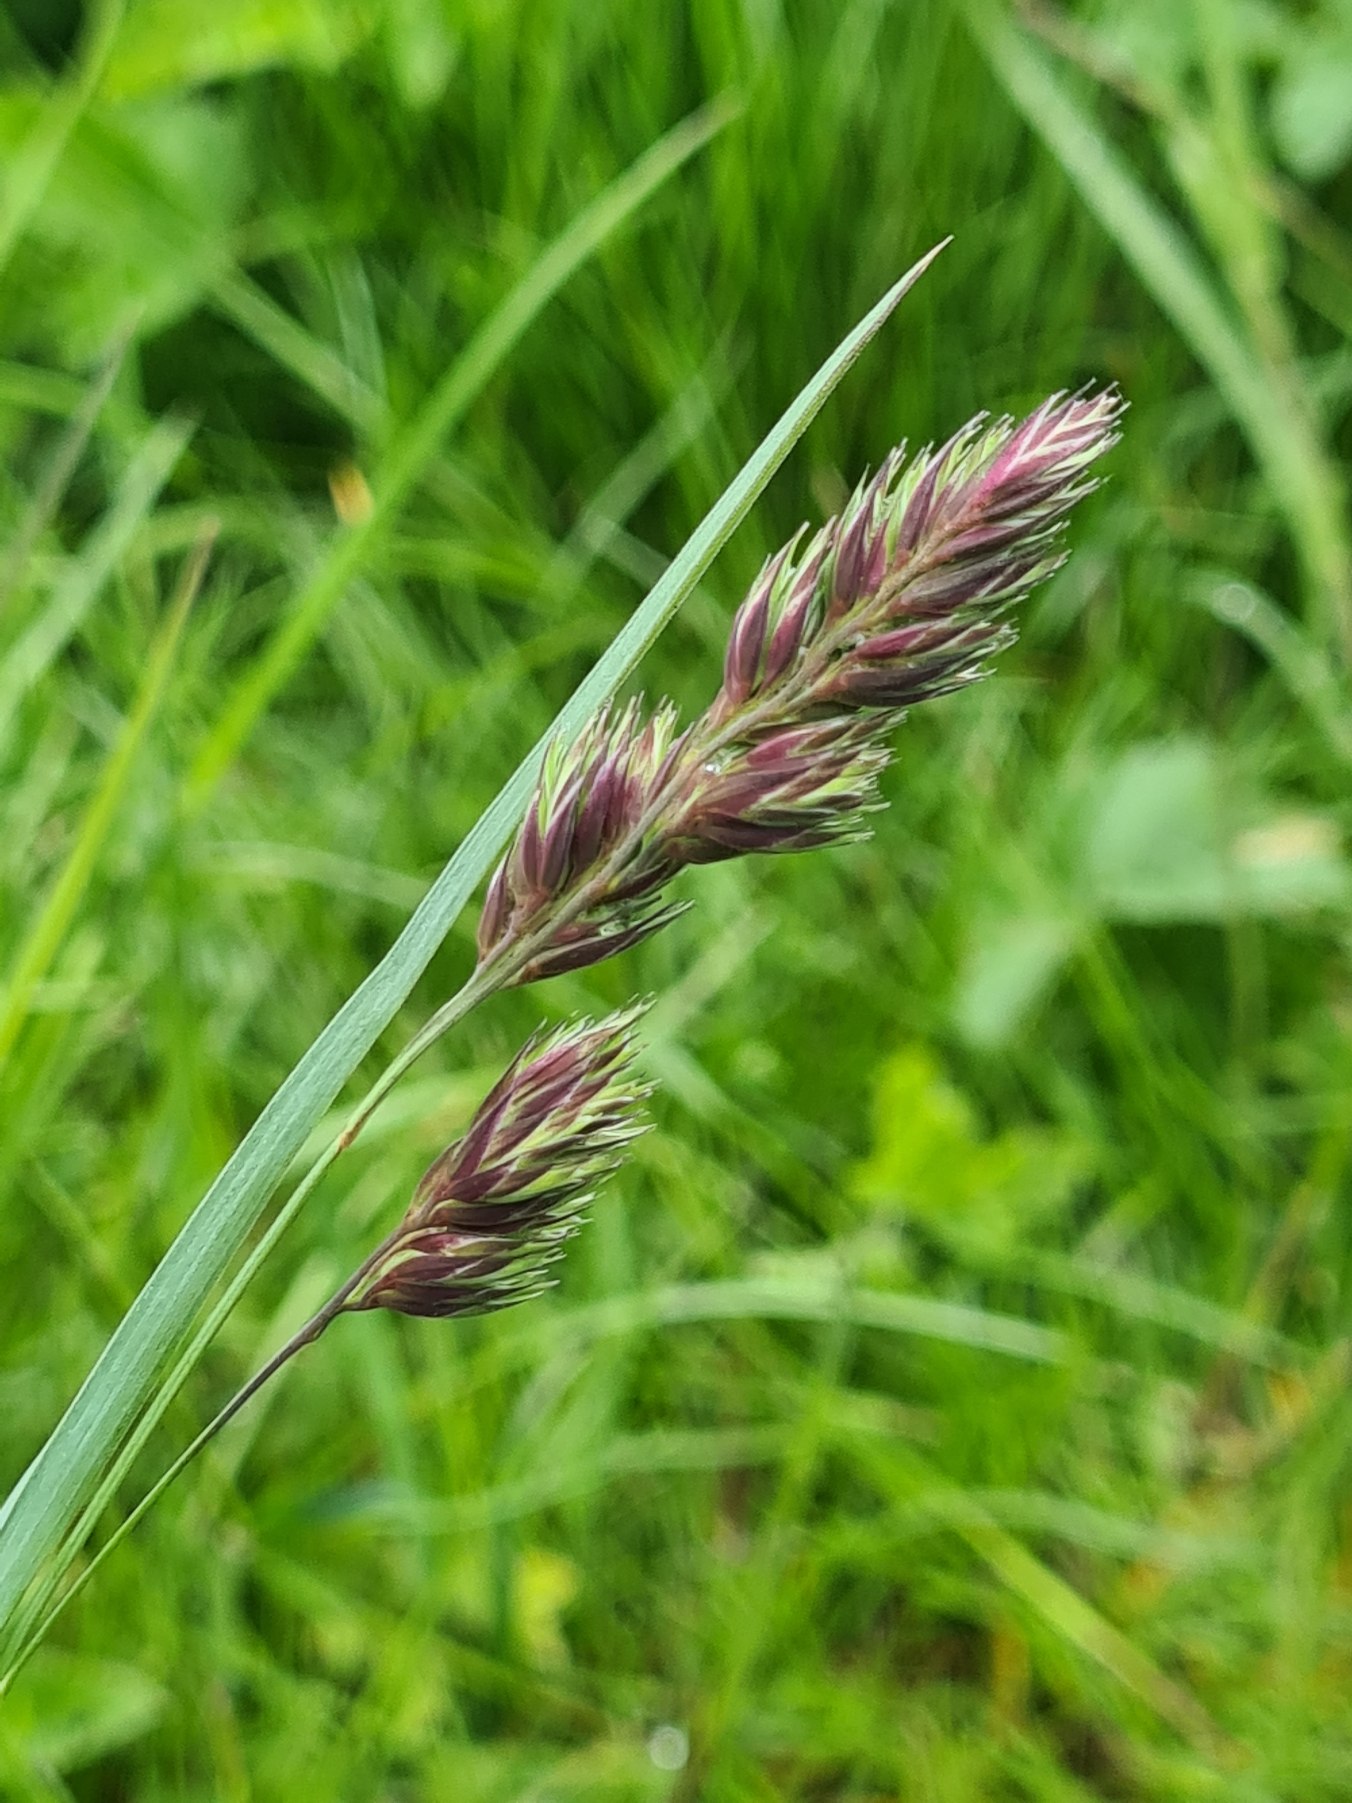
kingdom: Plantae
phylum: Tracheophyta
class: Liliopsida
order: Poales
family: Poaceae
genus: Dactylis
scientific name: Dactylis glomerata
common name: Almindelig hundegræs
